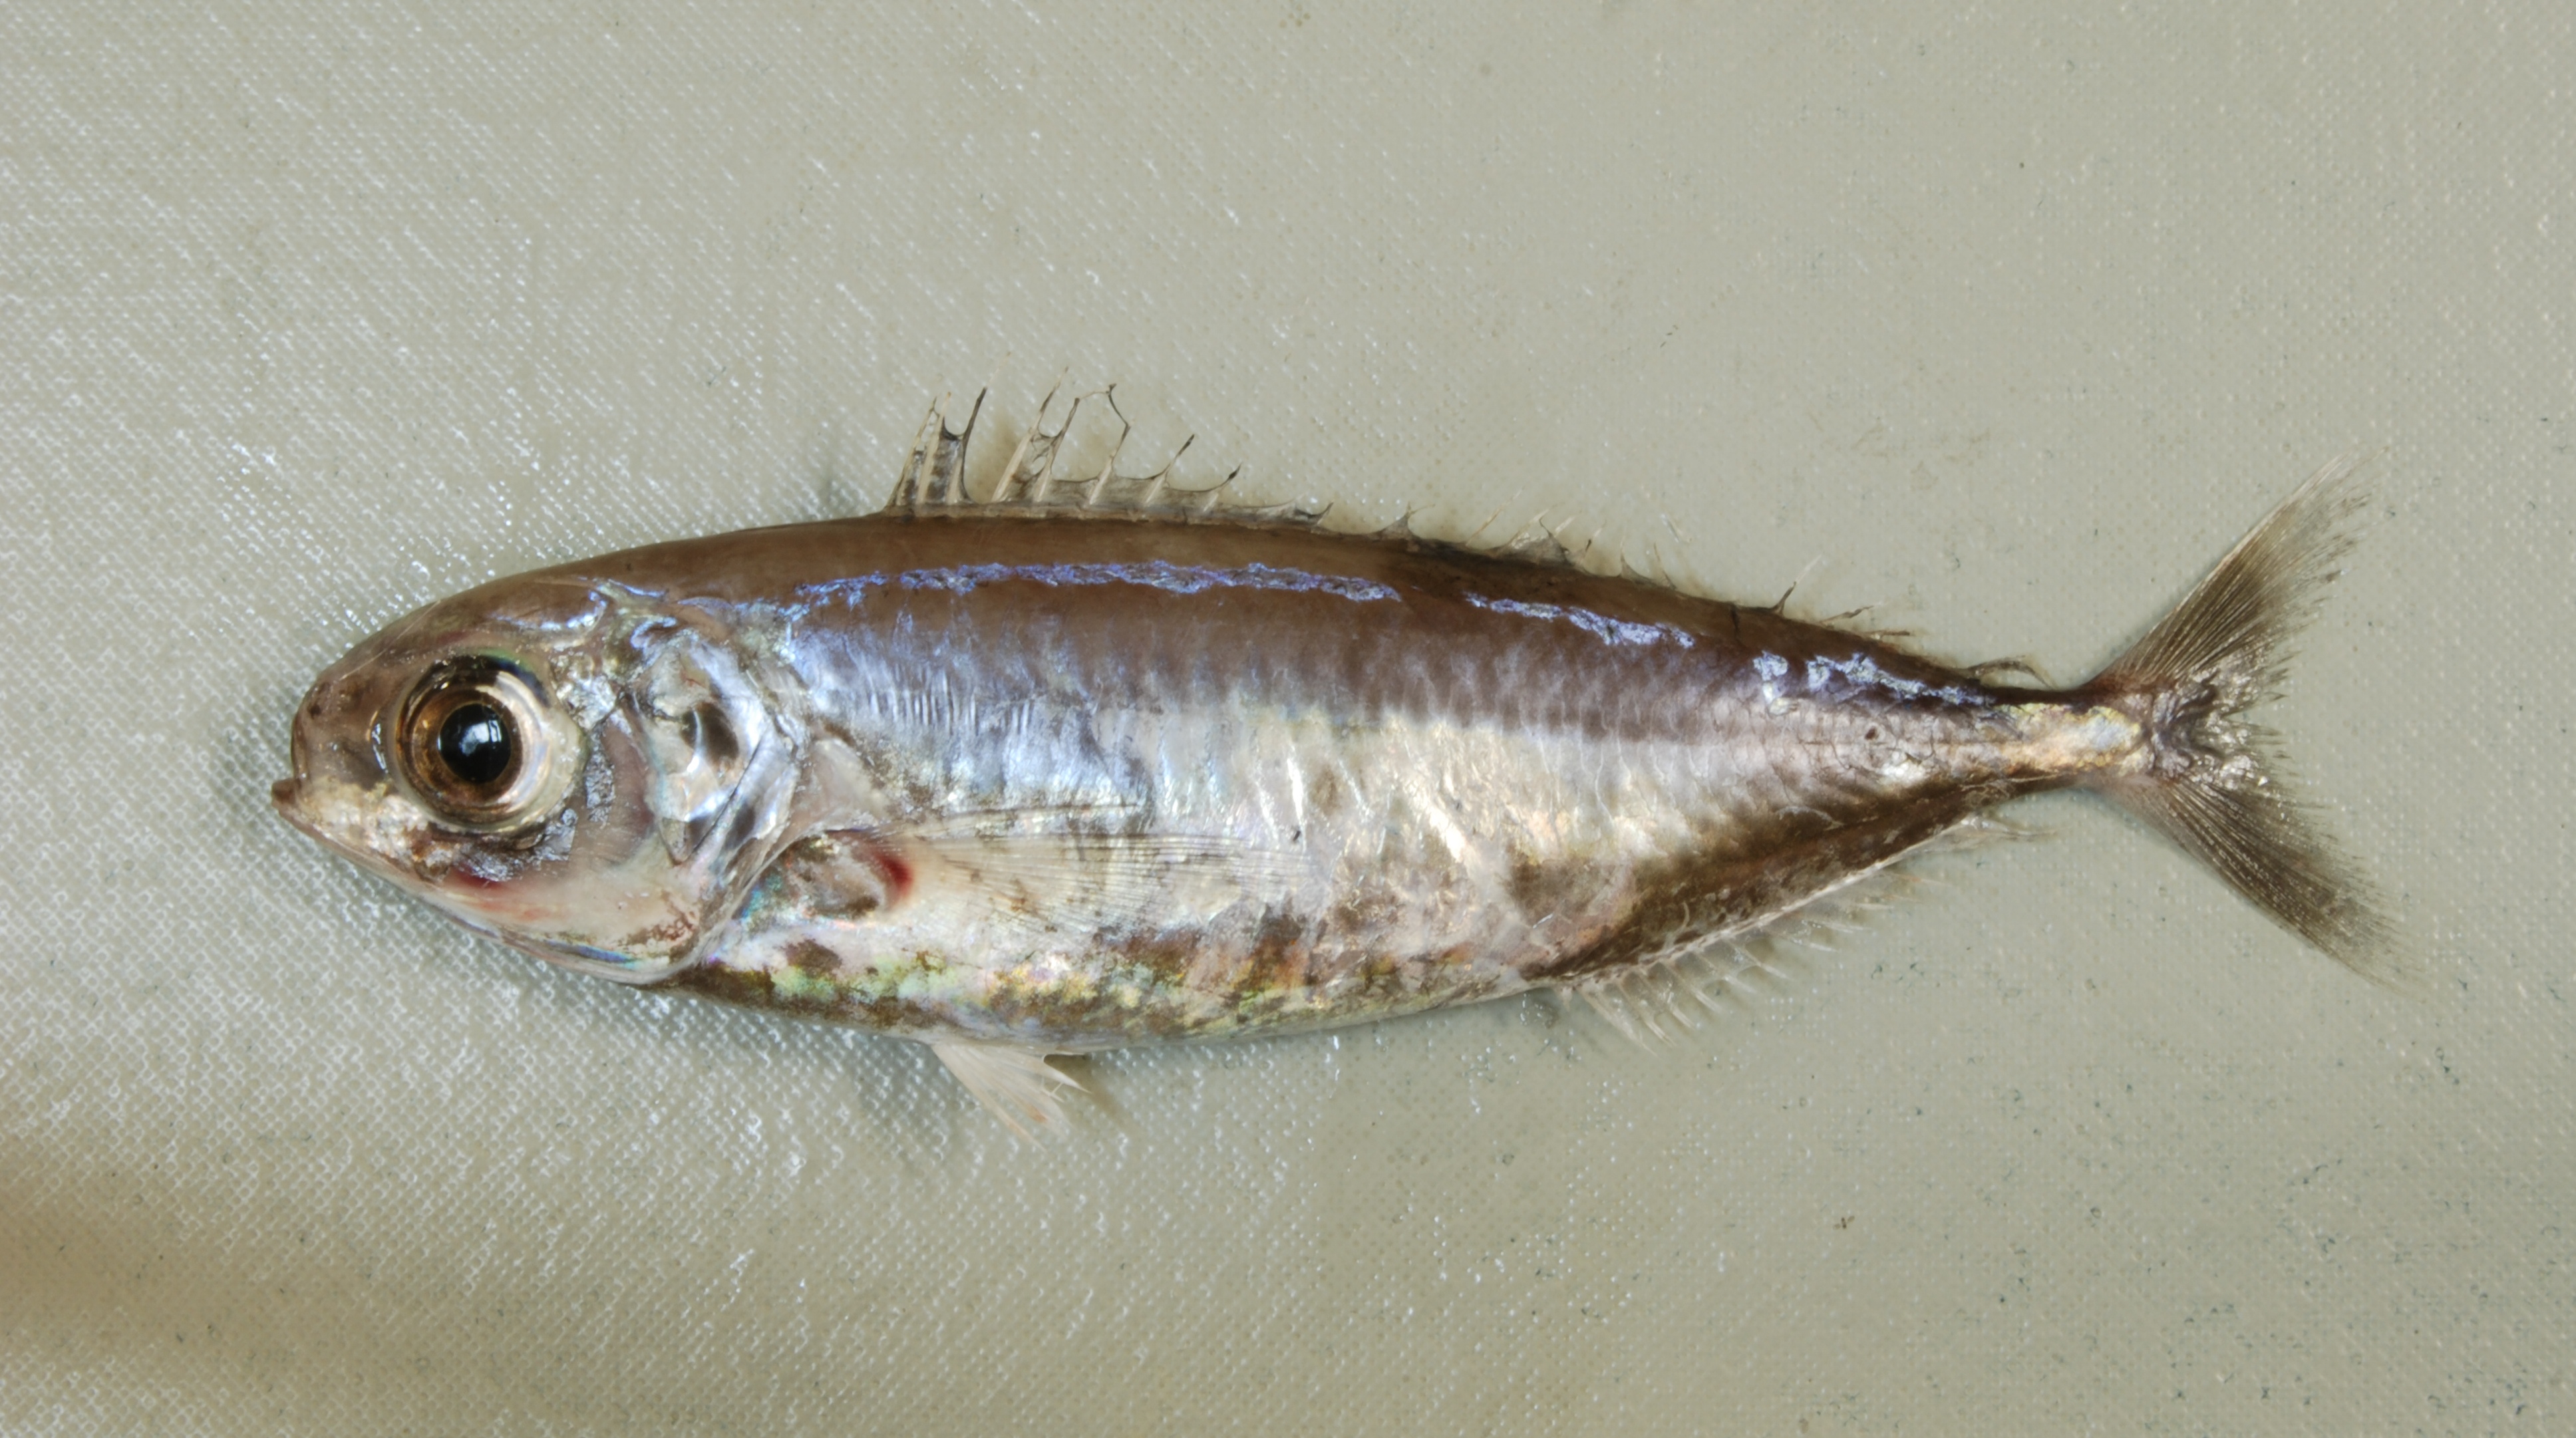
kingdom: Animalia
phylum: Chordata
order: Perciformes
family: Ariommatidae
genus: Ariomma
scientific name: Ariomma melanum
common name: Brown driftfish
